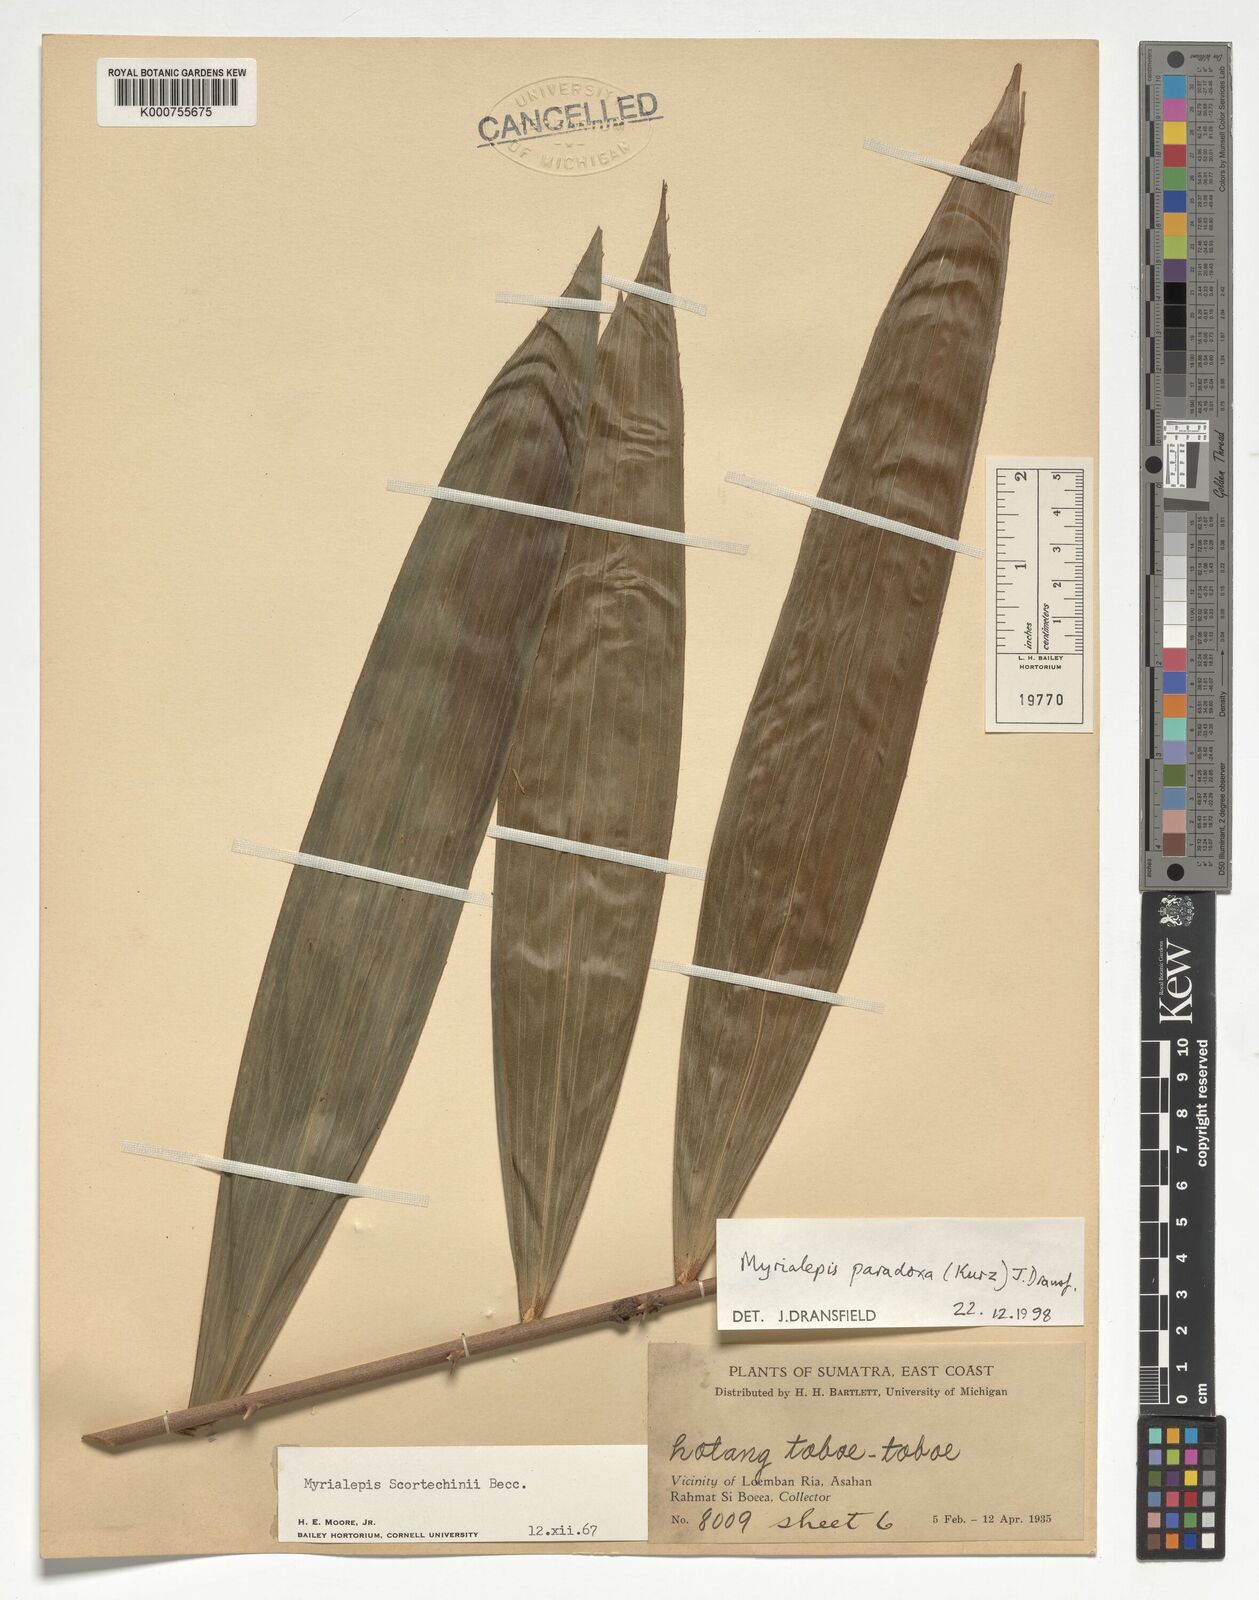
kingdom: Plantae
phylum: Tracheophyta
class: Liliopsida
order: Arecales
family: Arecaceae
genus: Myrialepis
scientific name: Myrialepis paradoxa
